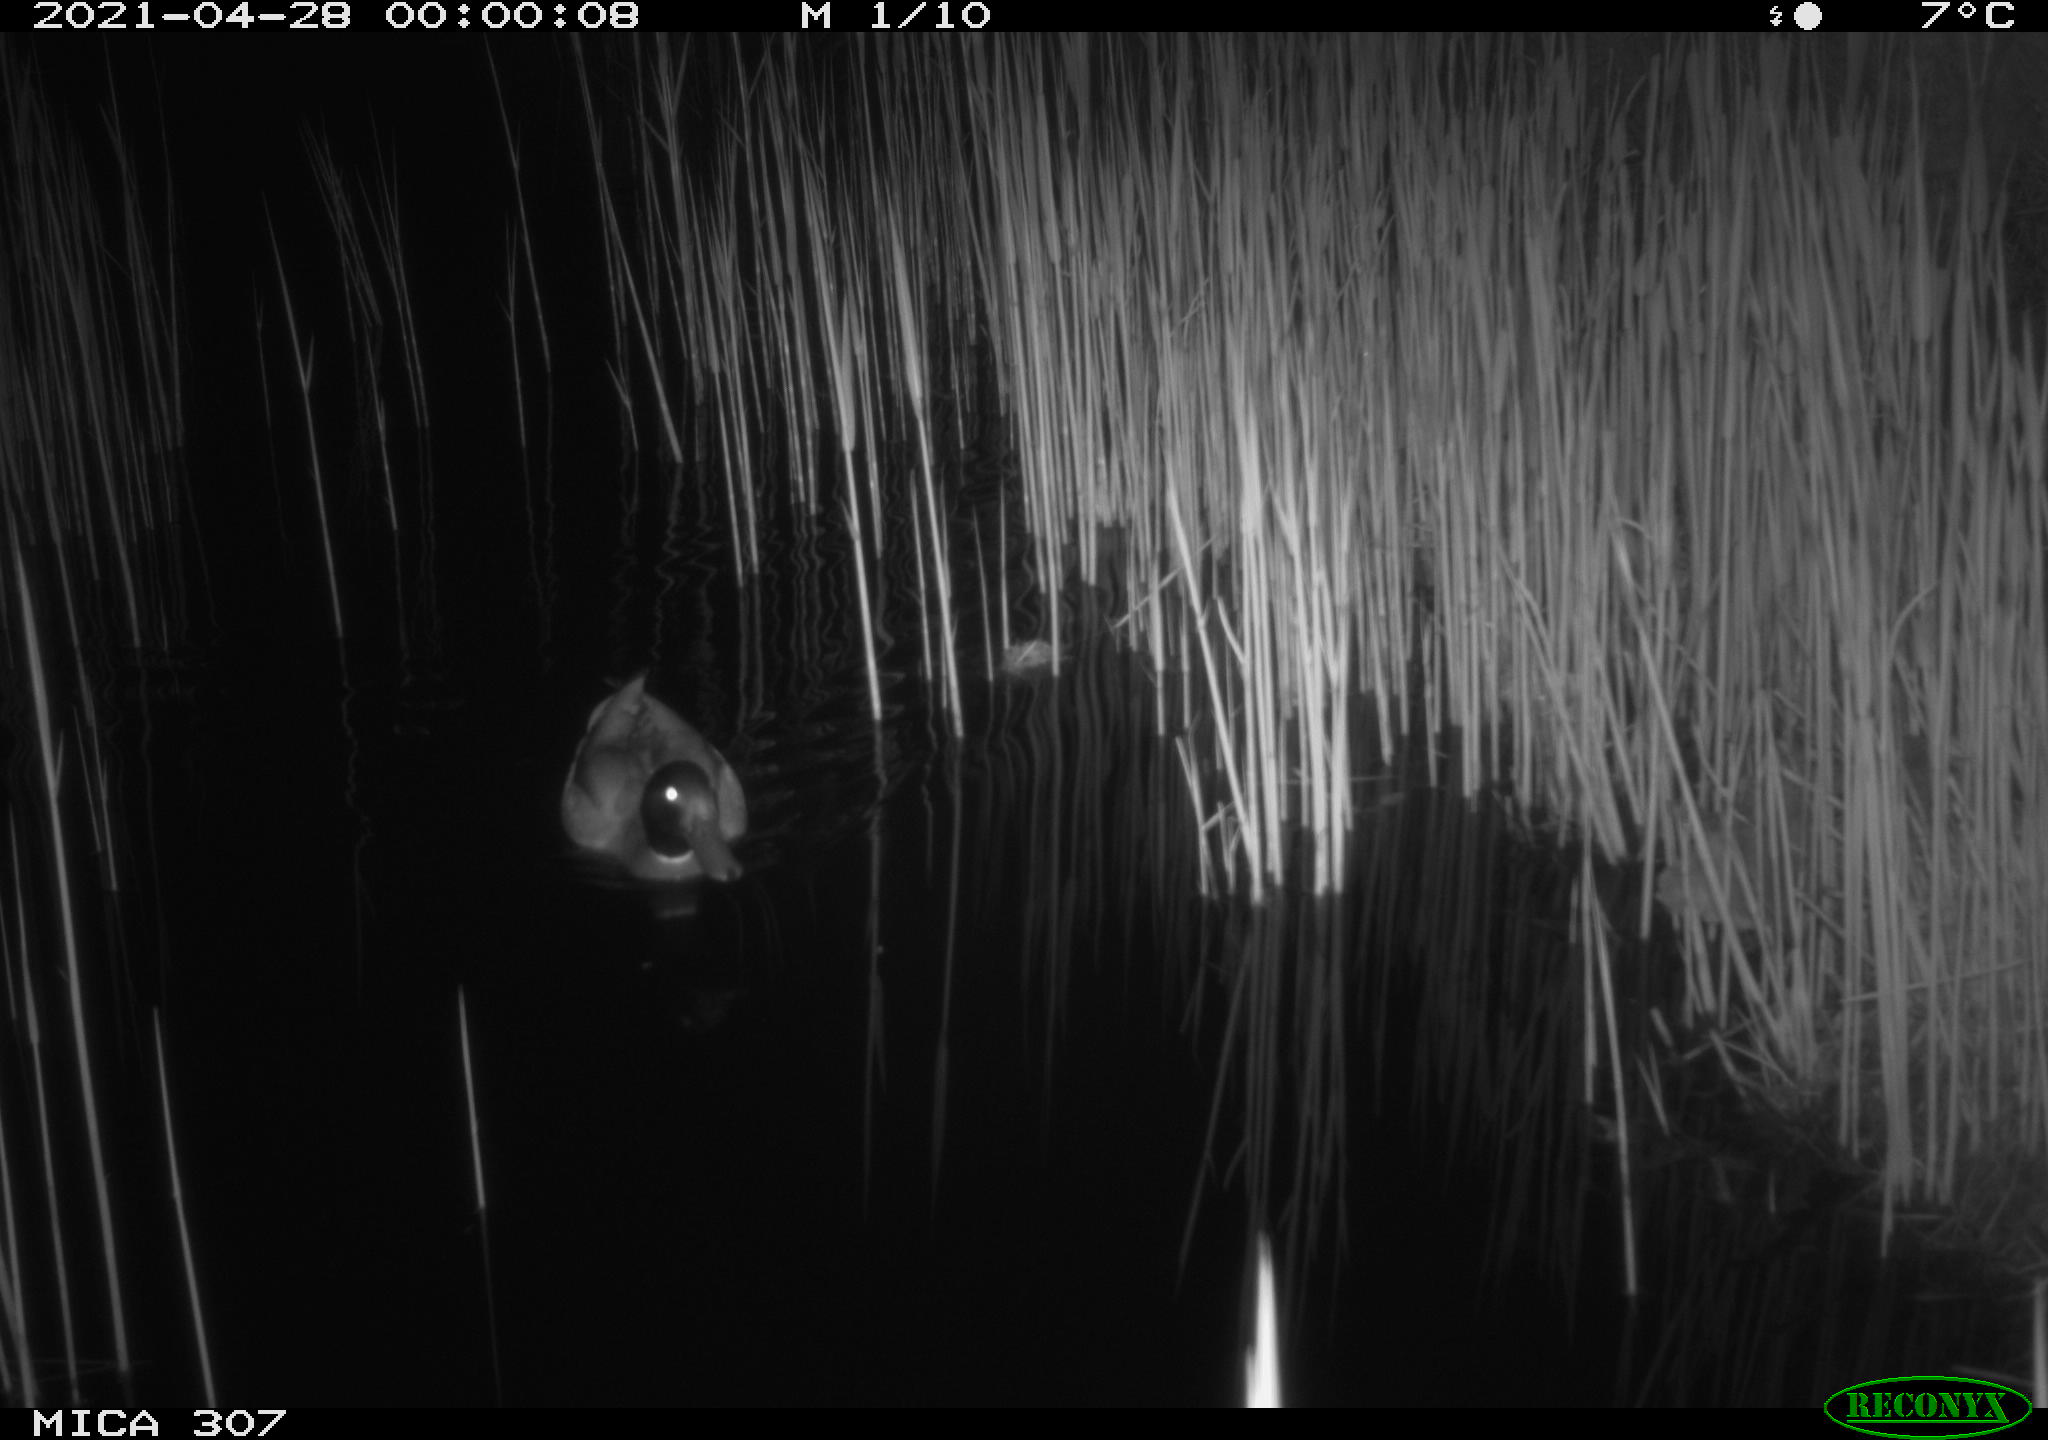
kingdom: Animalia
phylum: Chordata
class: Aves
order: Gruiformes
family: Rallidae
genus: Gallinula
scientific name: Gallinula chloropus
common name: Common moorhen
